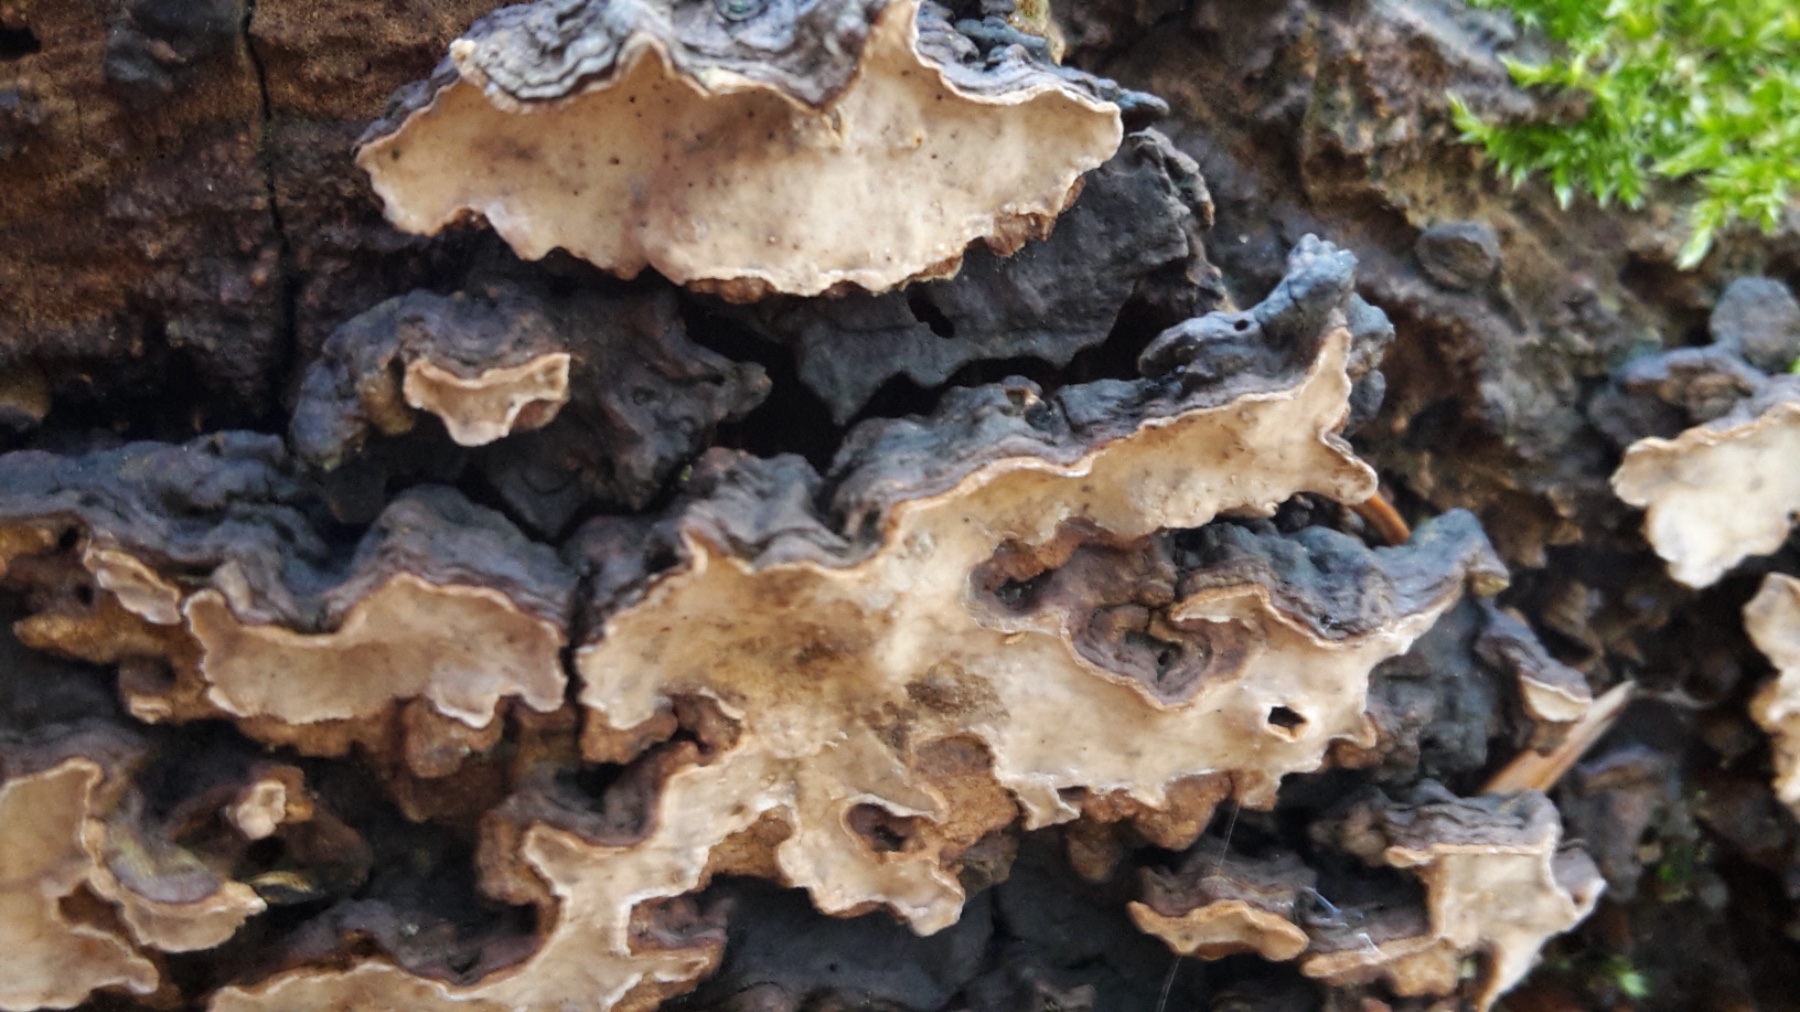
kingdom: Fungi
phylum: Basidiomycota
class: Agaricomycetes
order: Russulales
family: Stereaceae
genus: Stereum
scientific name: Stereum rugosum
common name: rynket lædersvamp
